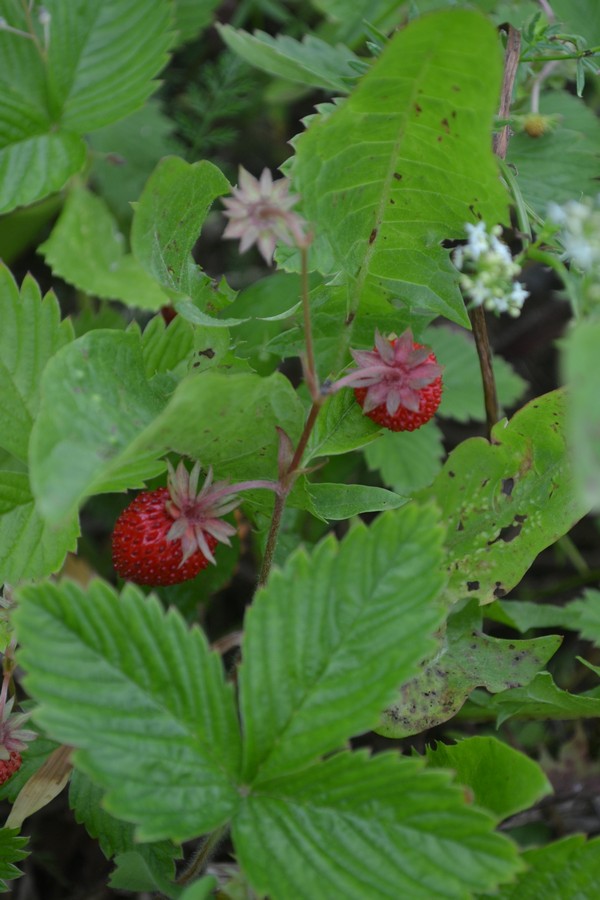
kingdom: Plantae
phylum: Tracheophyta
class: Magnoliopsida
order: Rosales
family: Rosaceae
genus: Fragaria
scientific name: Fragaria vesca
